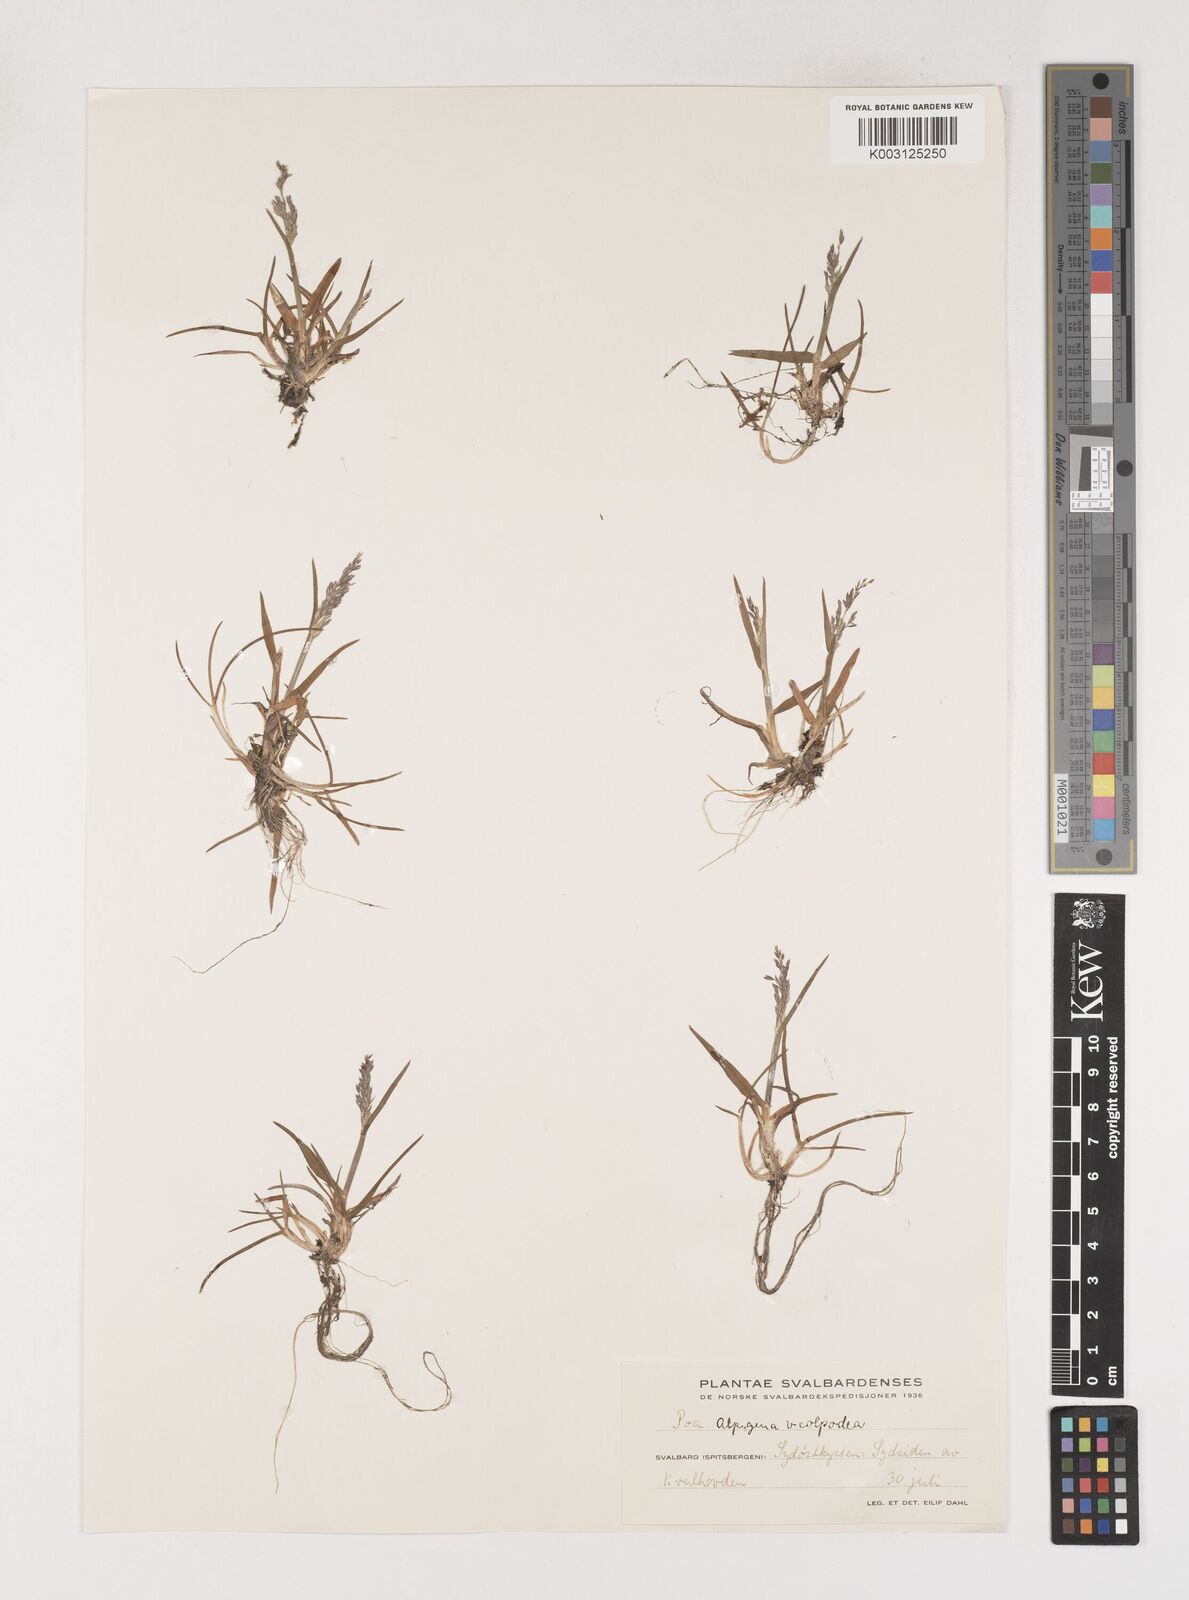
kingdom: Plantae
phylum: Tracheophyta
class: Liliopsida
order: Poales
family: Poaceae
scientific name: Poaceae
